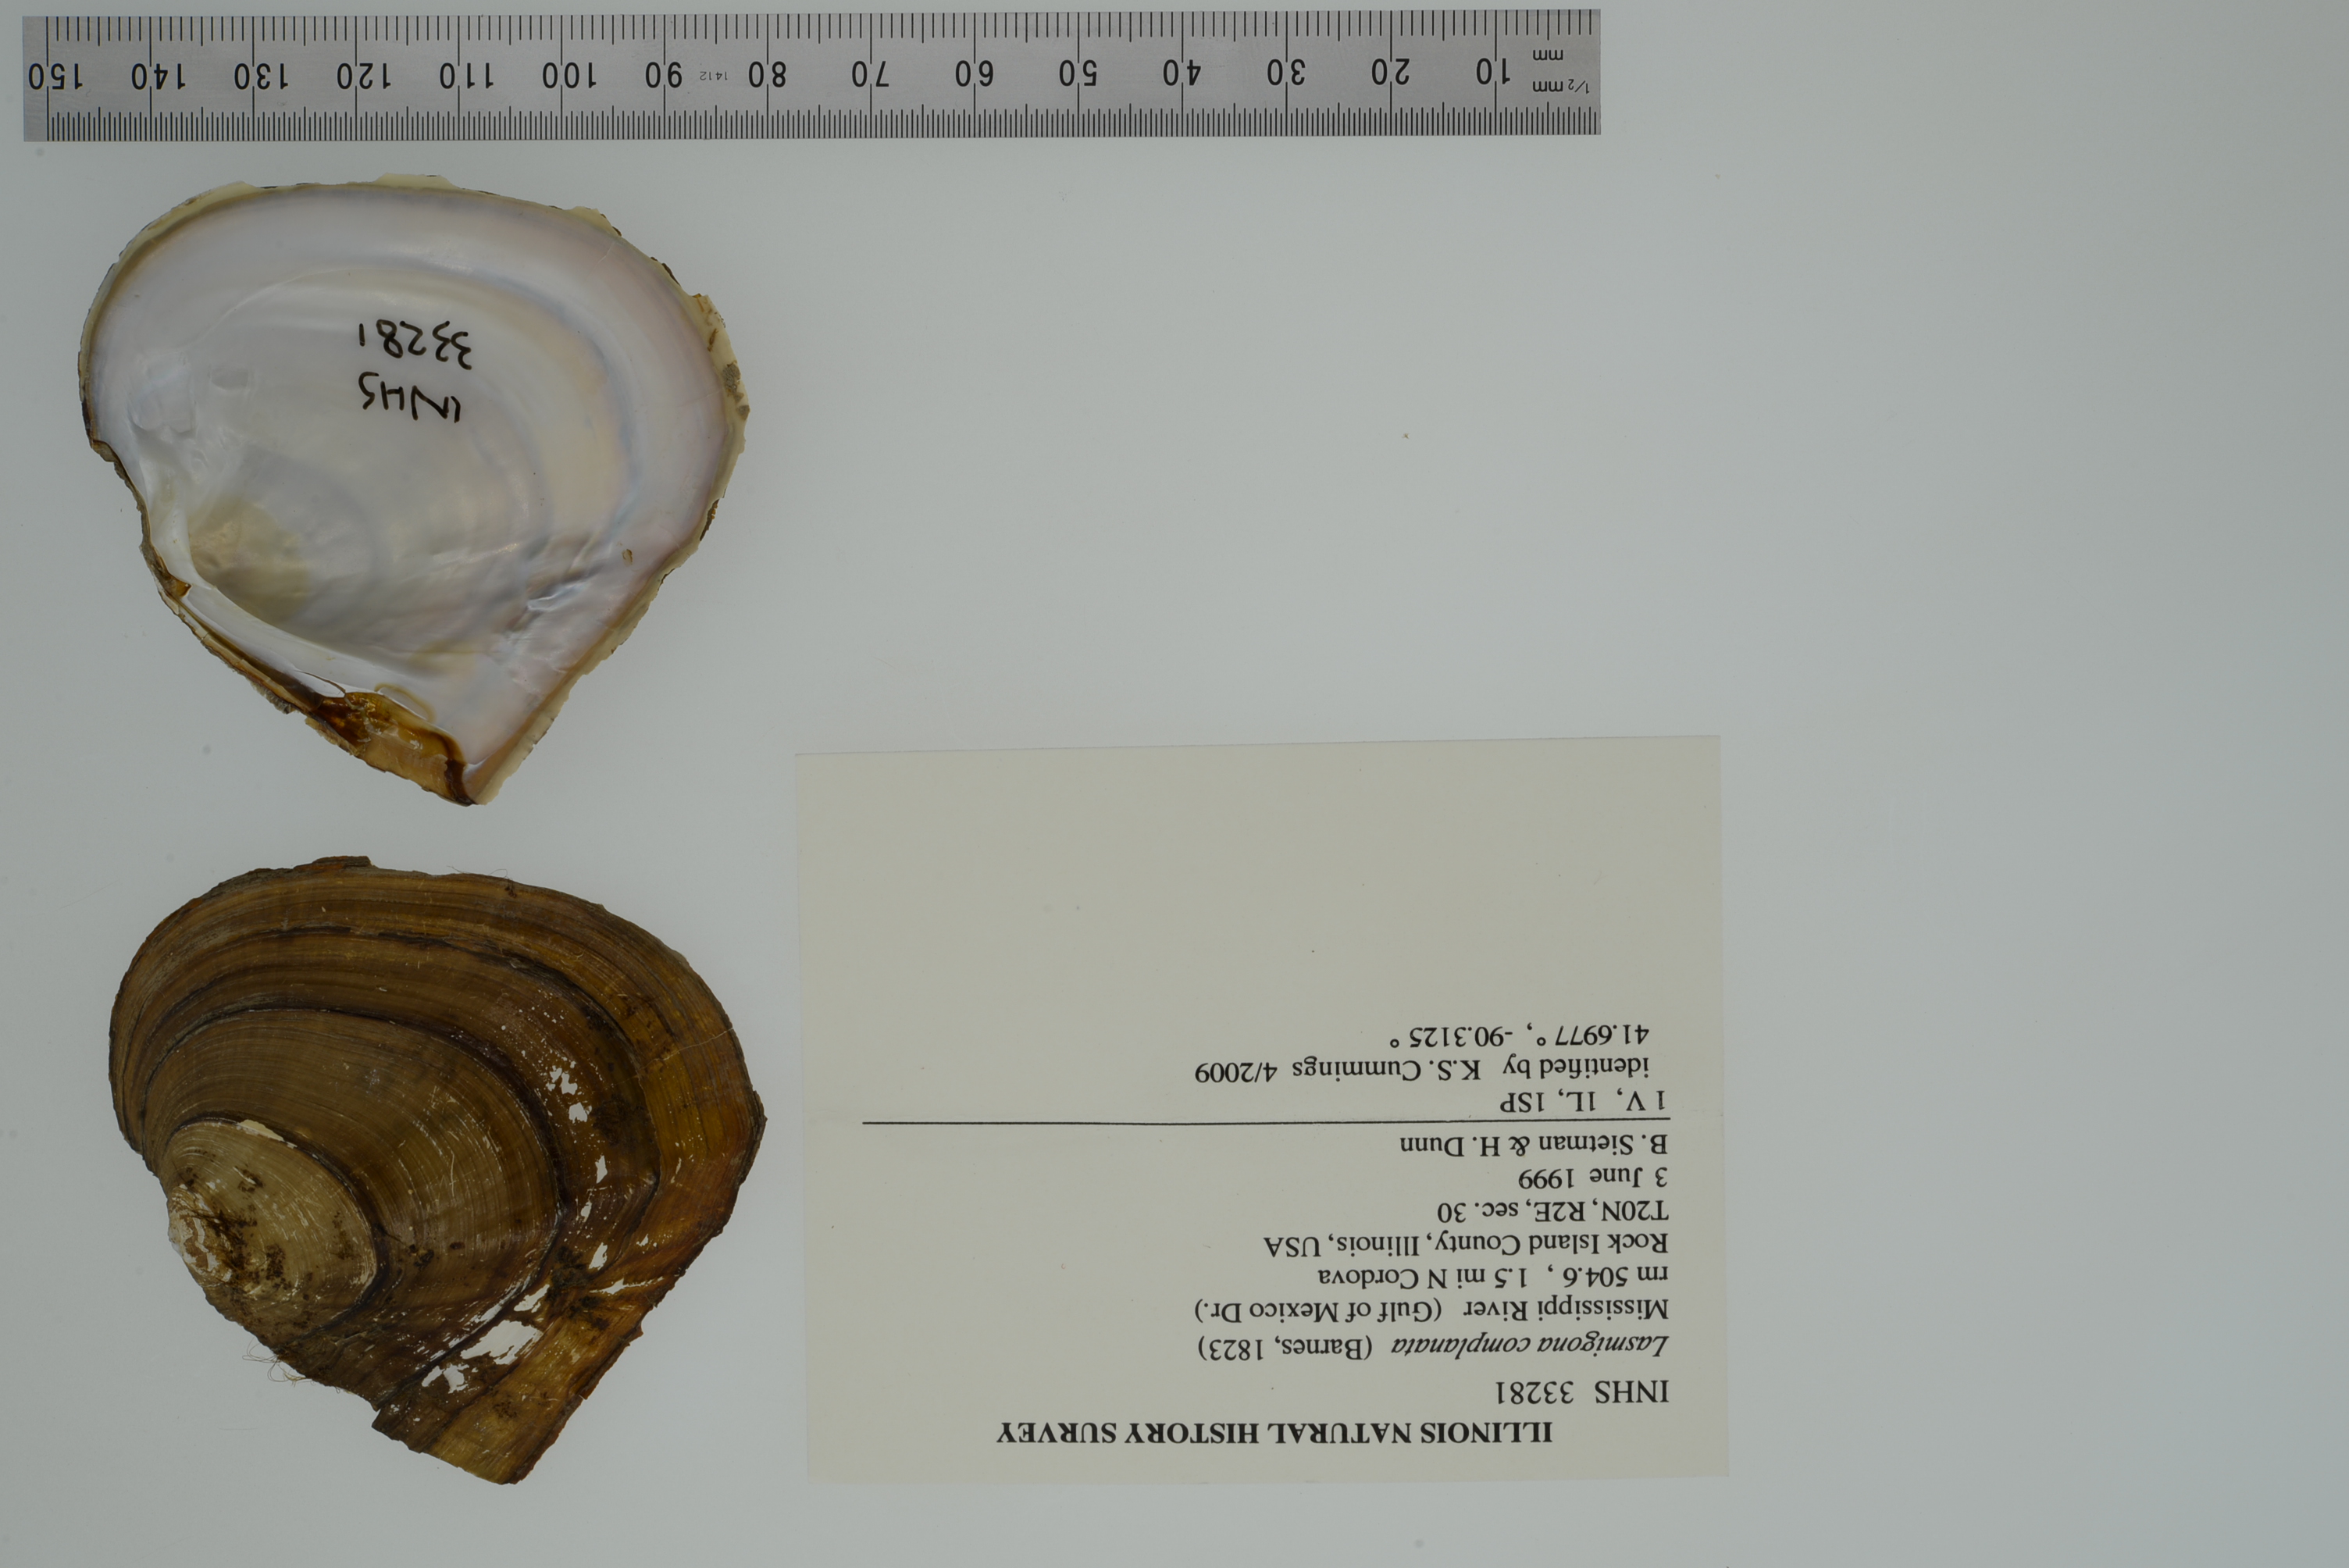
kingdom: Animalia
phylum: Mollusca
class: Bivalvia
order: Unionida
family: Unionidae
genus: Lasmigona
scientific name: Lasmigona complanata
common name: White heelsplitter
